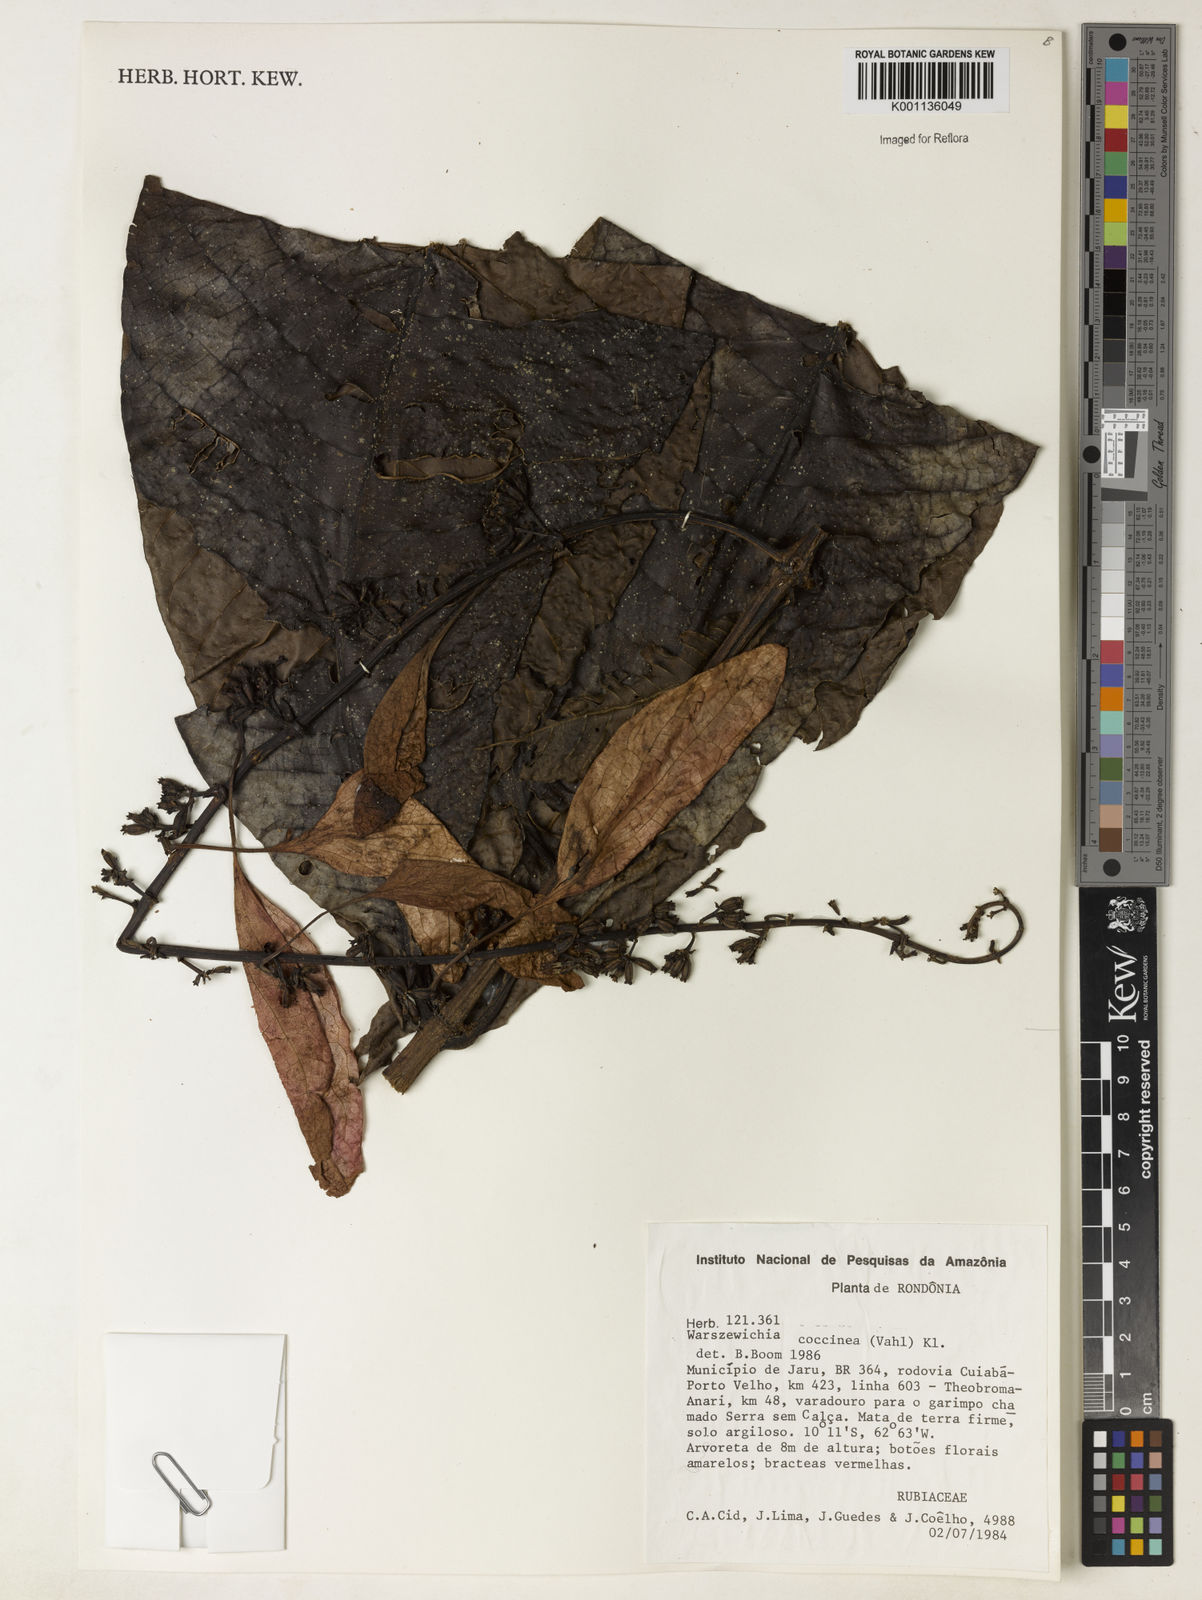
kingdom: Plantae
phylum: Tracheophyta
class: Magnoliopsida
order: Gentianales
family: Rubiaceae
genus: Warszewiczia
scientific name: Warszewiczia coccinea
